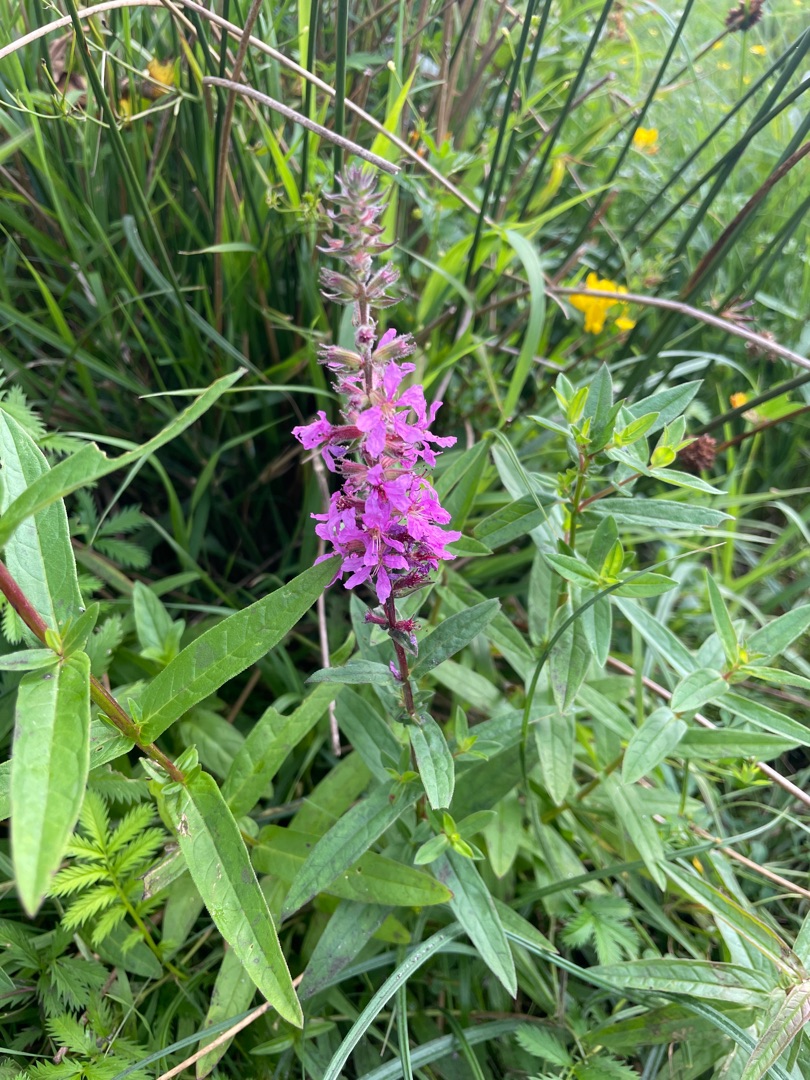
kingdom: Plantae
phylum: Tracheophyta
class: Magnoliopsida
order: Myrtales
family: Lythraceae
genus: Lythrum
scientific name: Lythrum salicaria
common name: Kattehale
